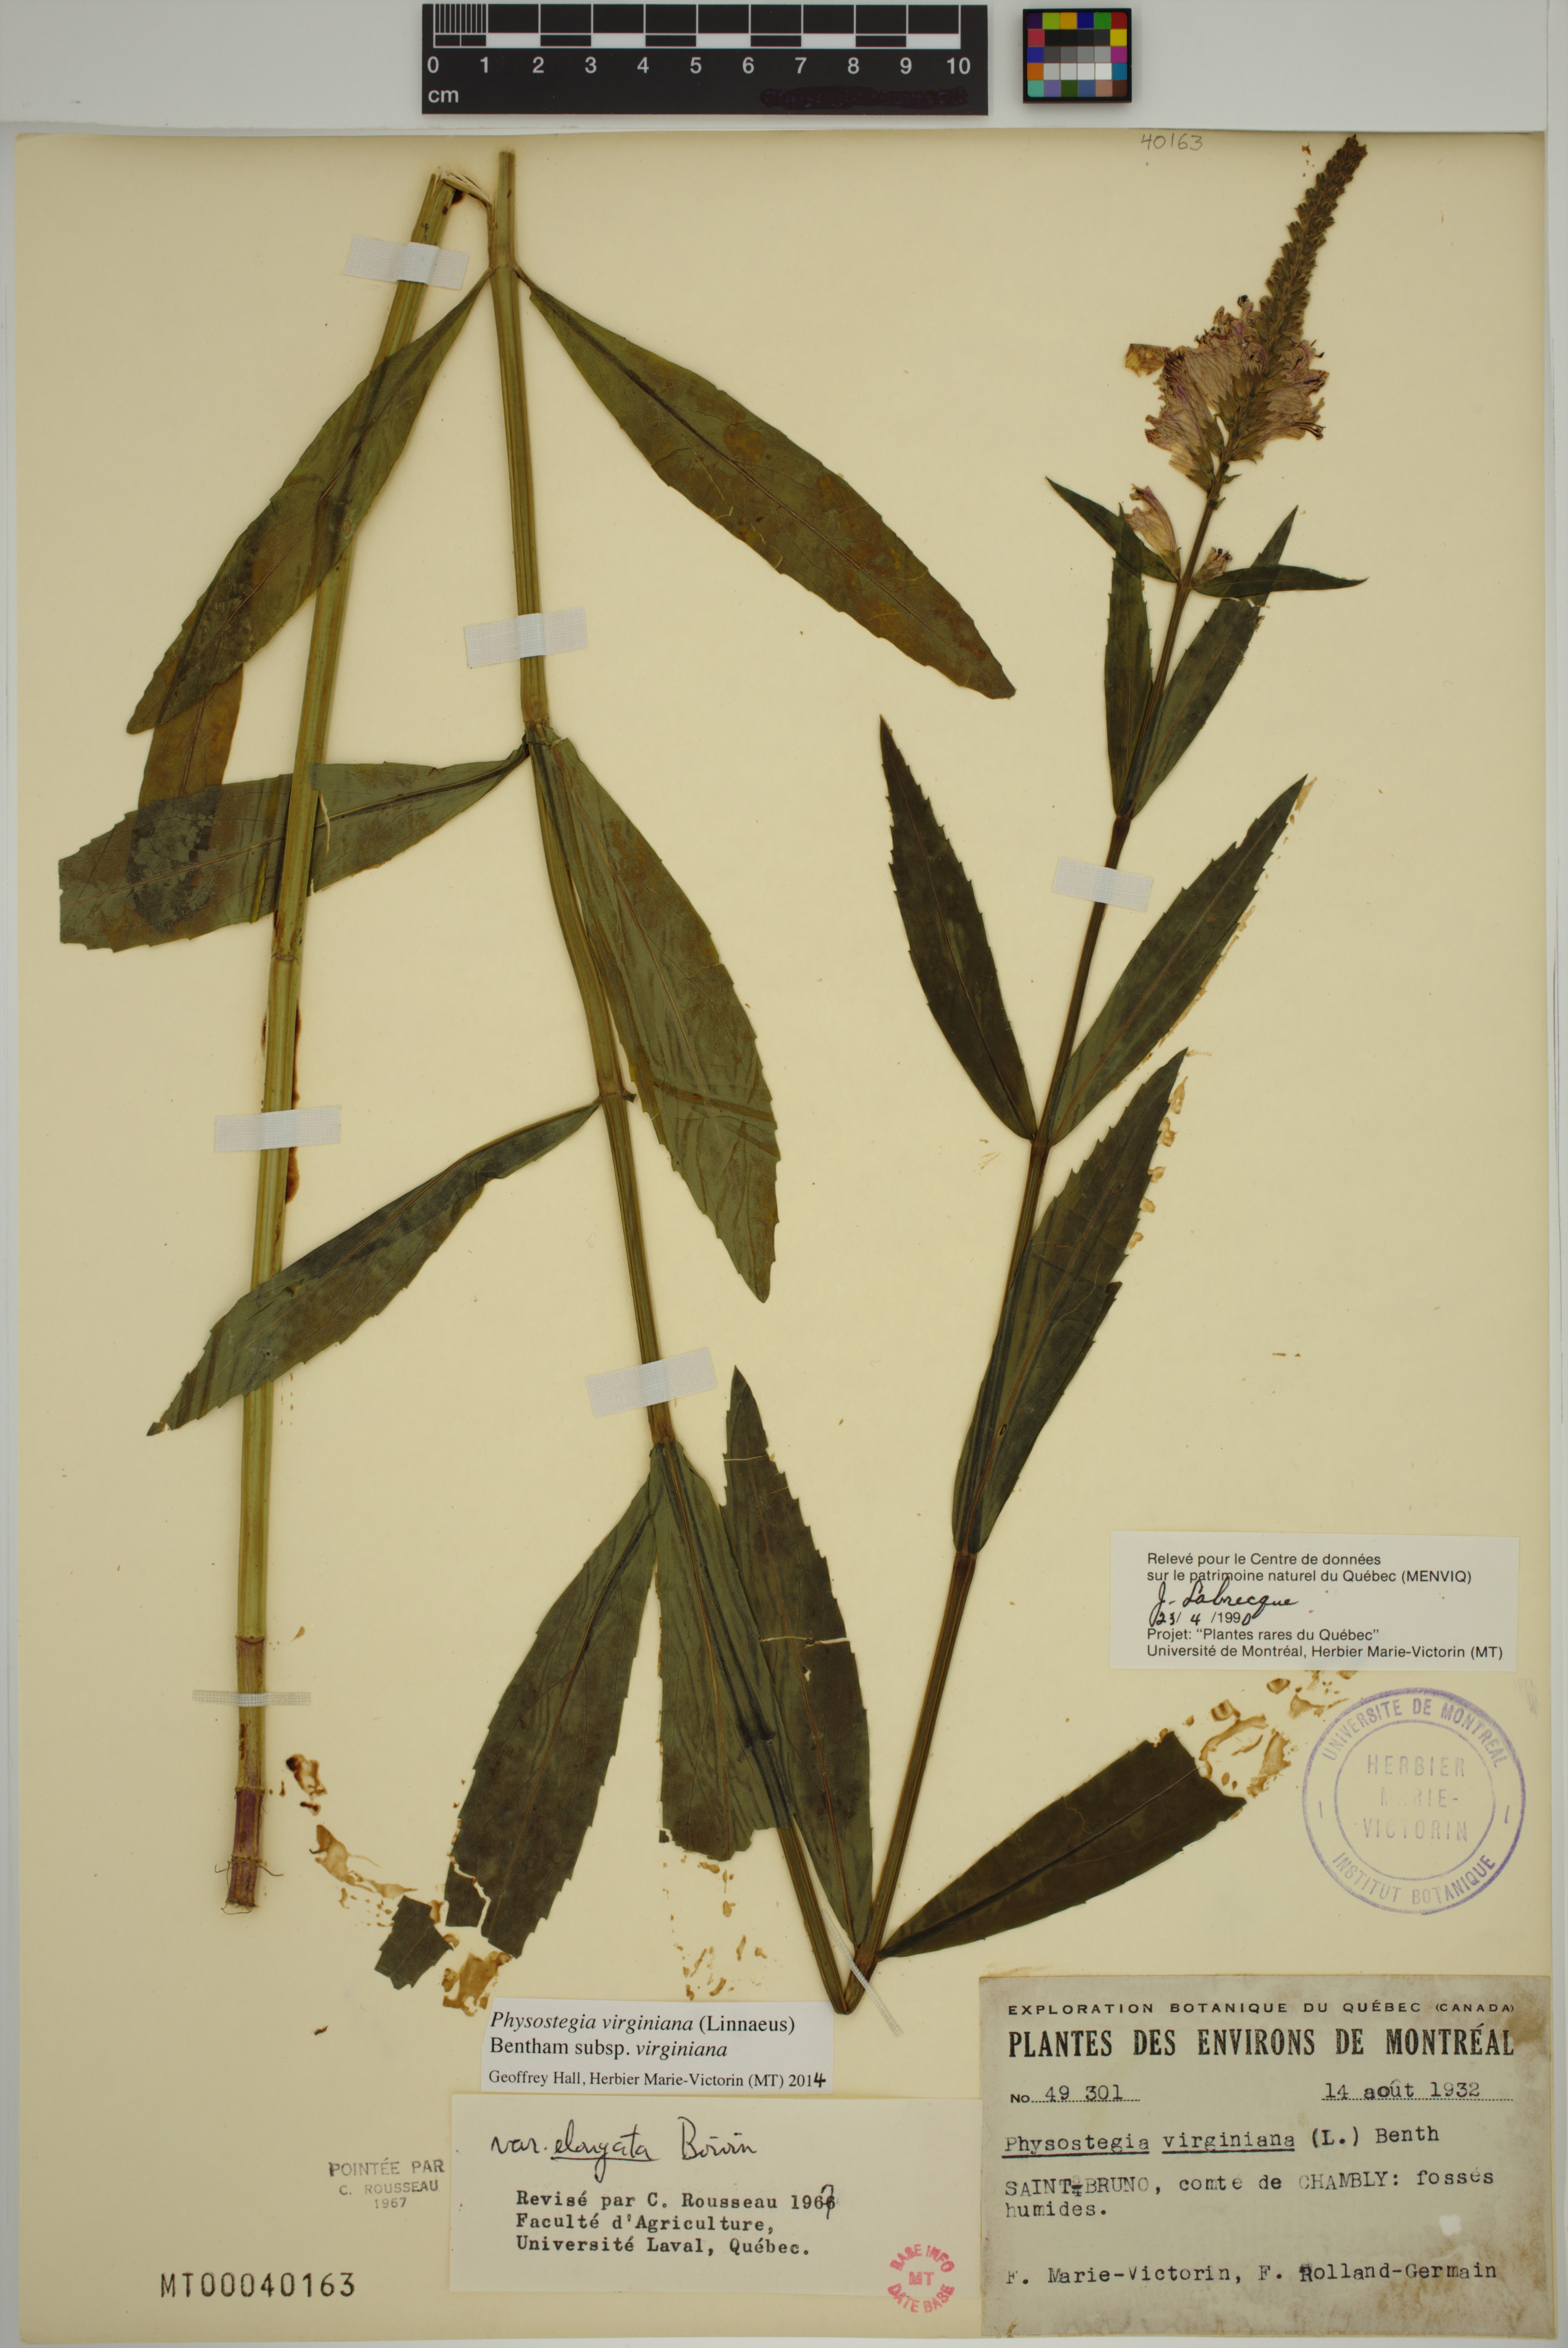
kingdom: Plantae
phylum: Tracheophyta
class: Magnoliopsida
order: Lamiales
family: Lamiaceae
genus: Physostegia
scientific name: Physostegia virginiana
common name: Obedient-plant
